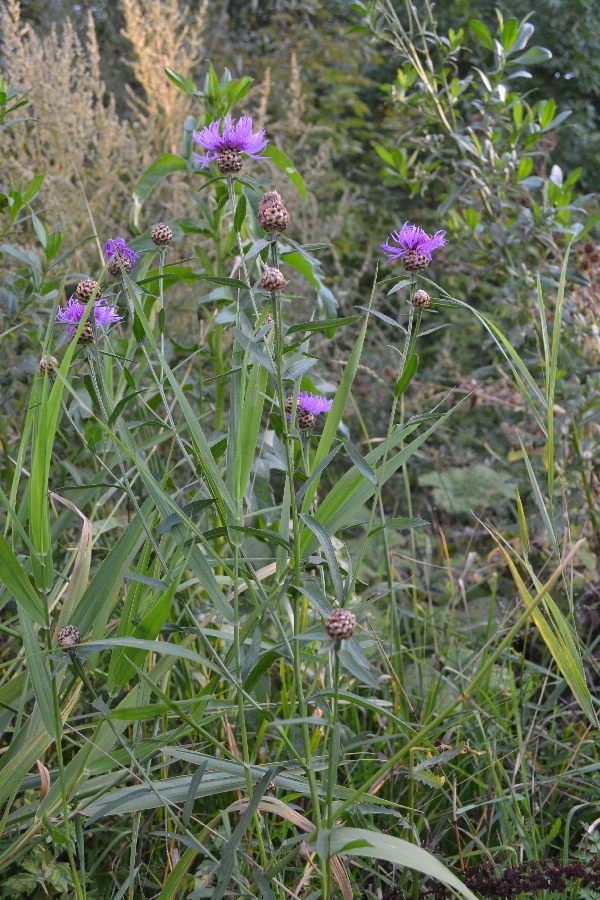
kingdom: Plantae
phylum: Tracheophyta
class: Magnoliopsida
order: Asterales
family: Asteraceae
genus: Centaurea
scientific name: Centaurea jacea
